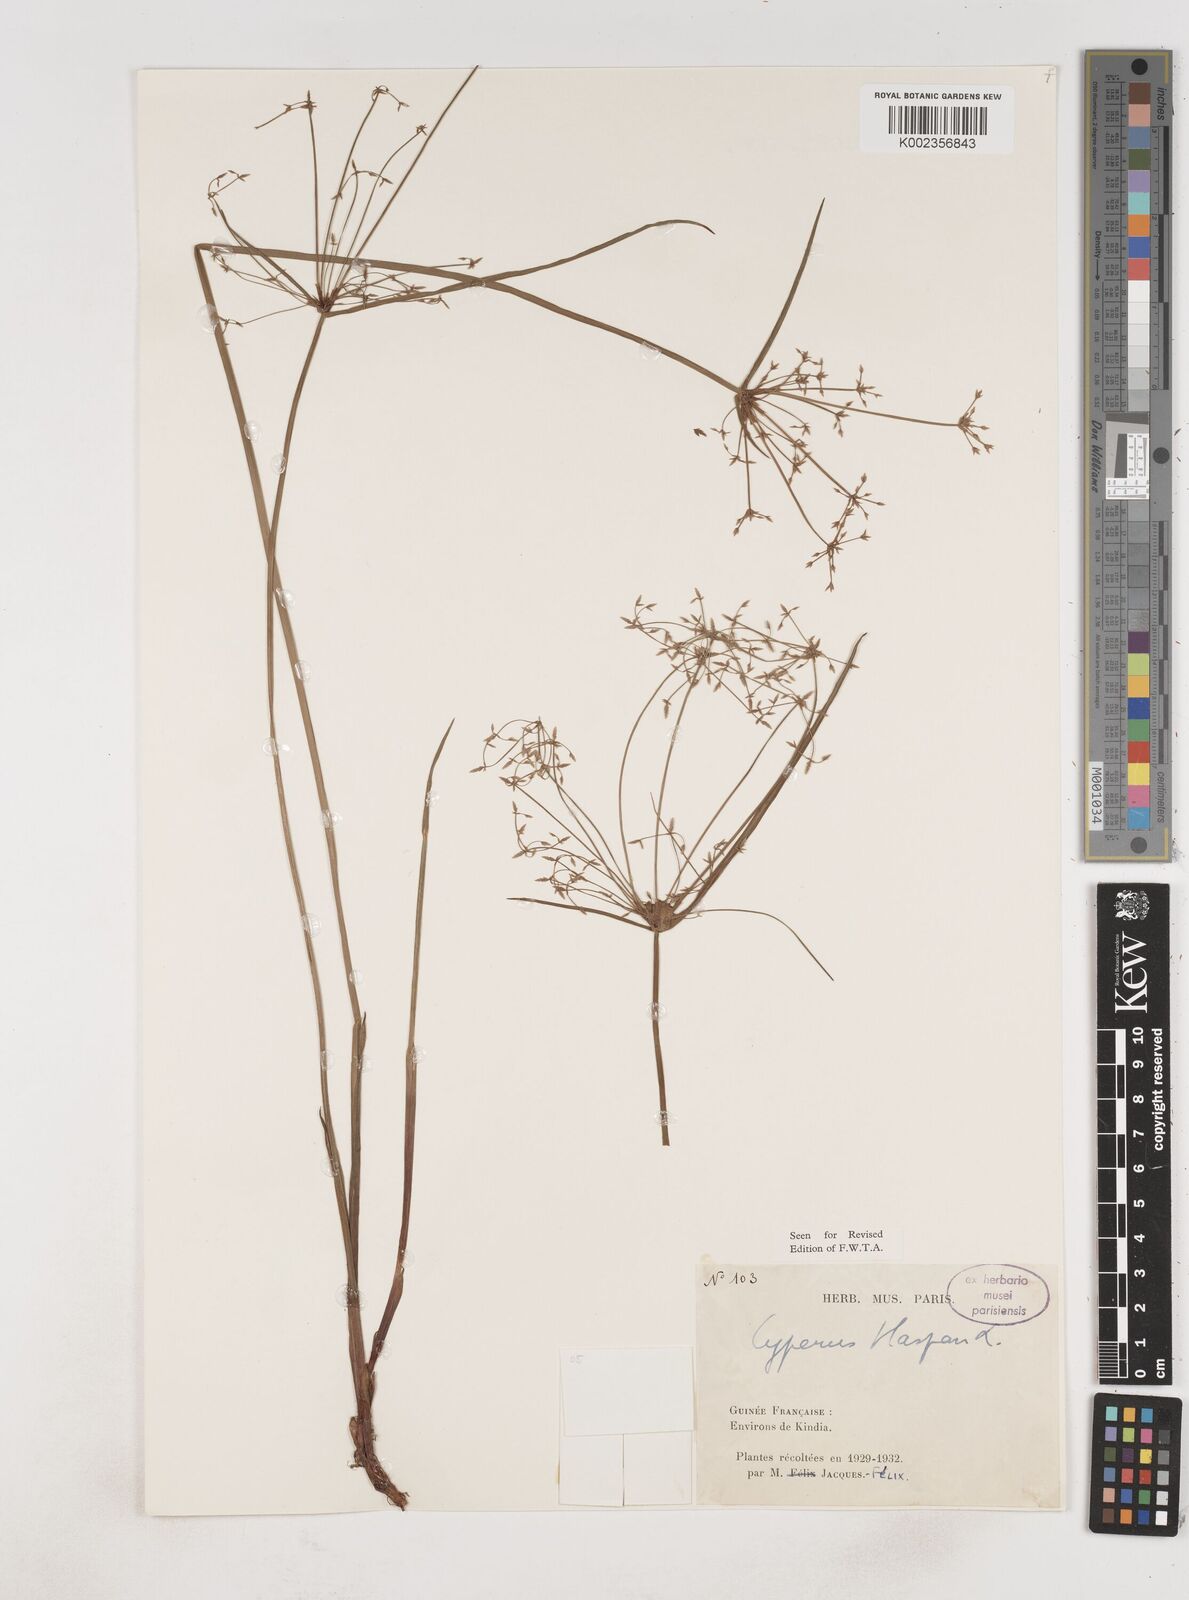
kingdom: Plantae
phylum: Tracheophyta
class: Liliopsida
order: Poales
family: Cyperaceae
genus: Cyperus
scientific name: Cyperus haspan
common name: Haspan flatsedge
